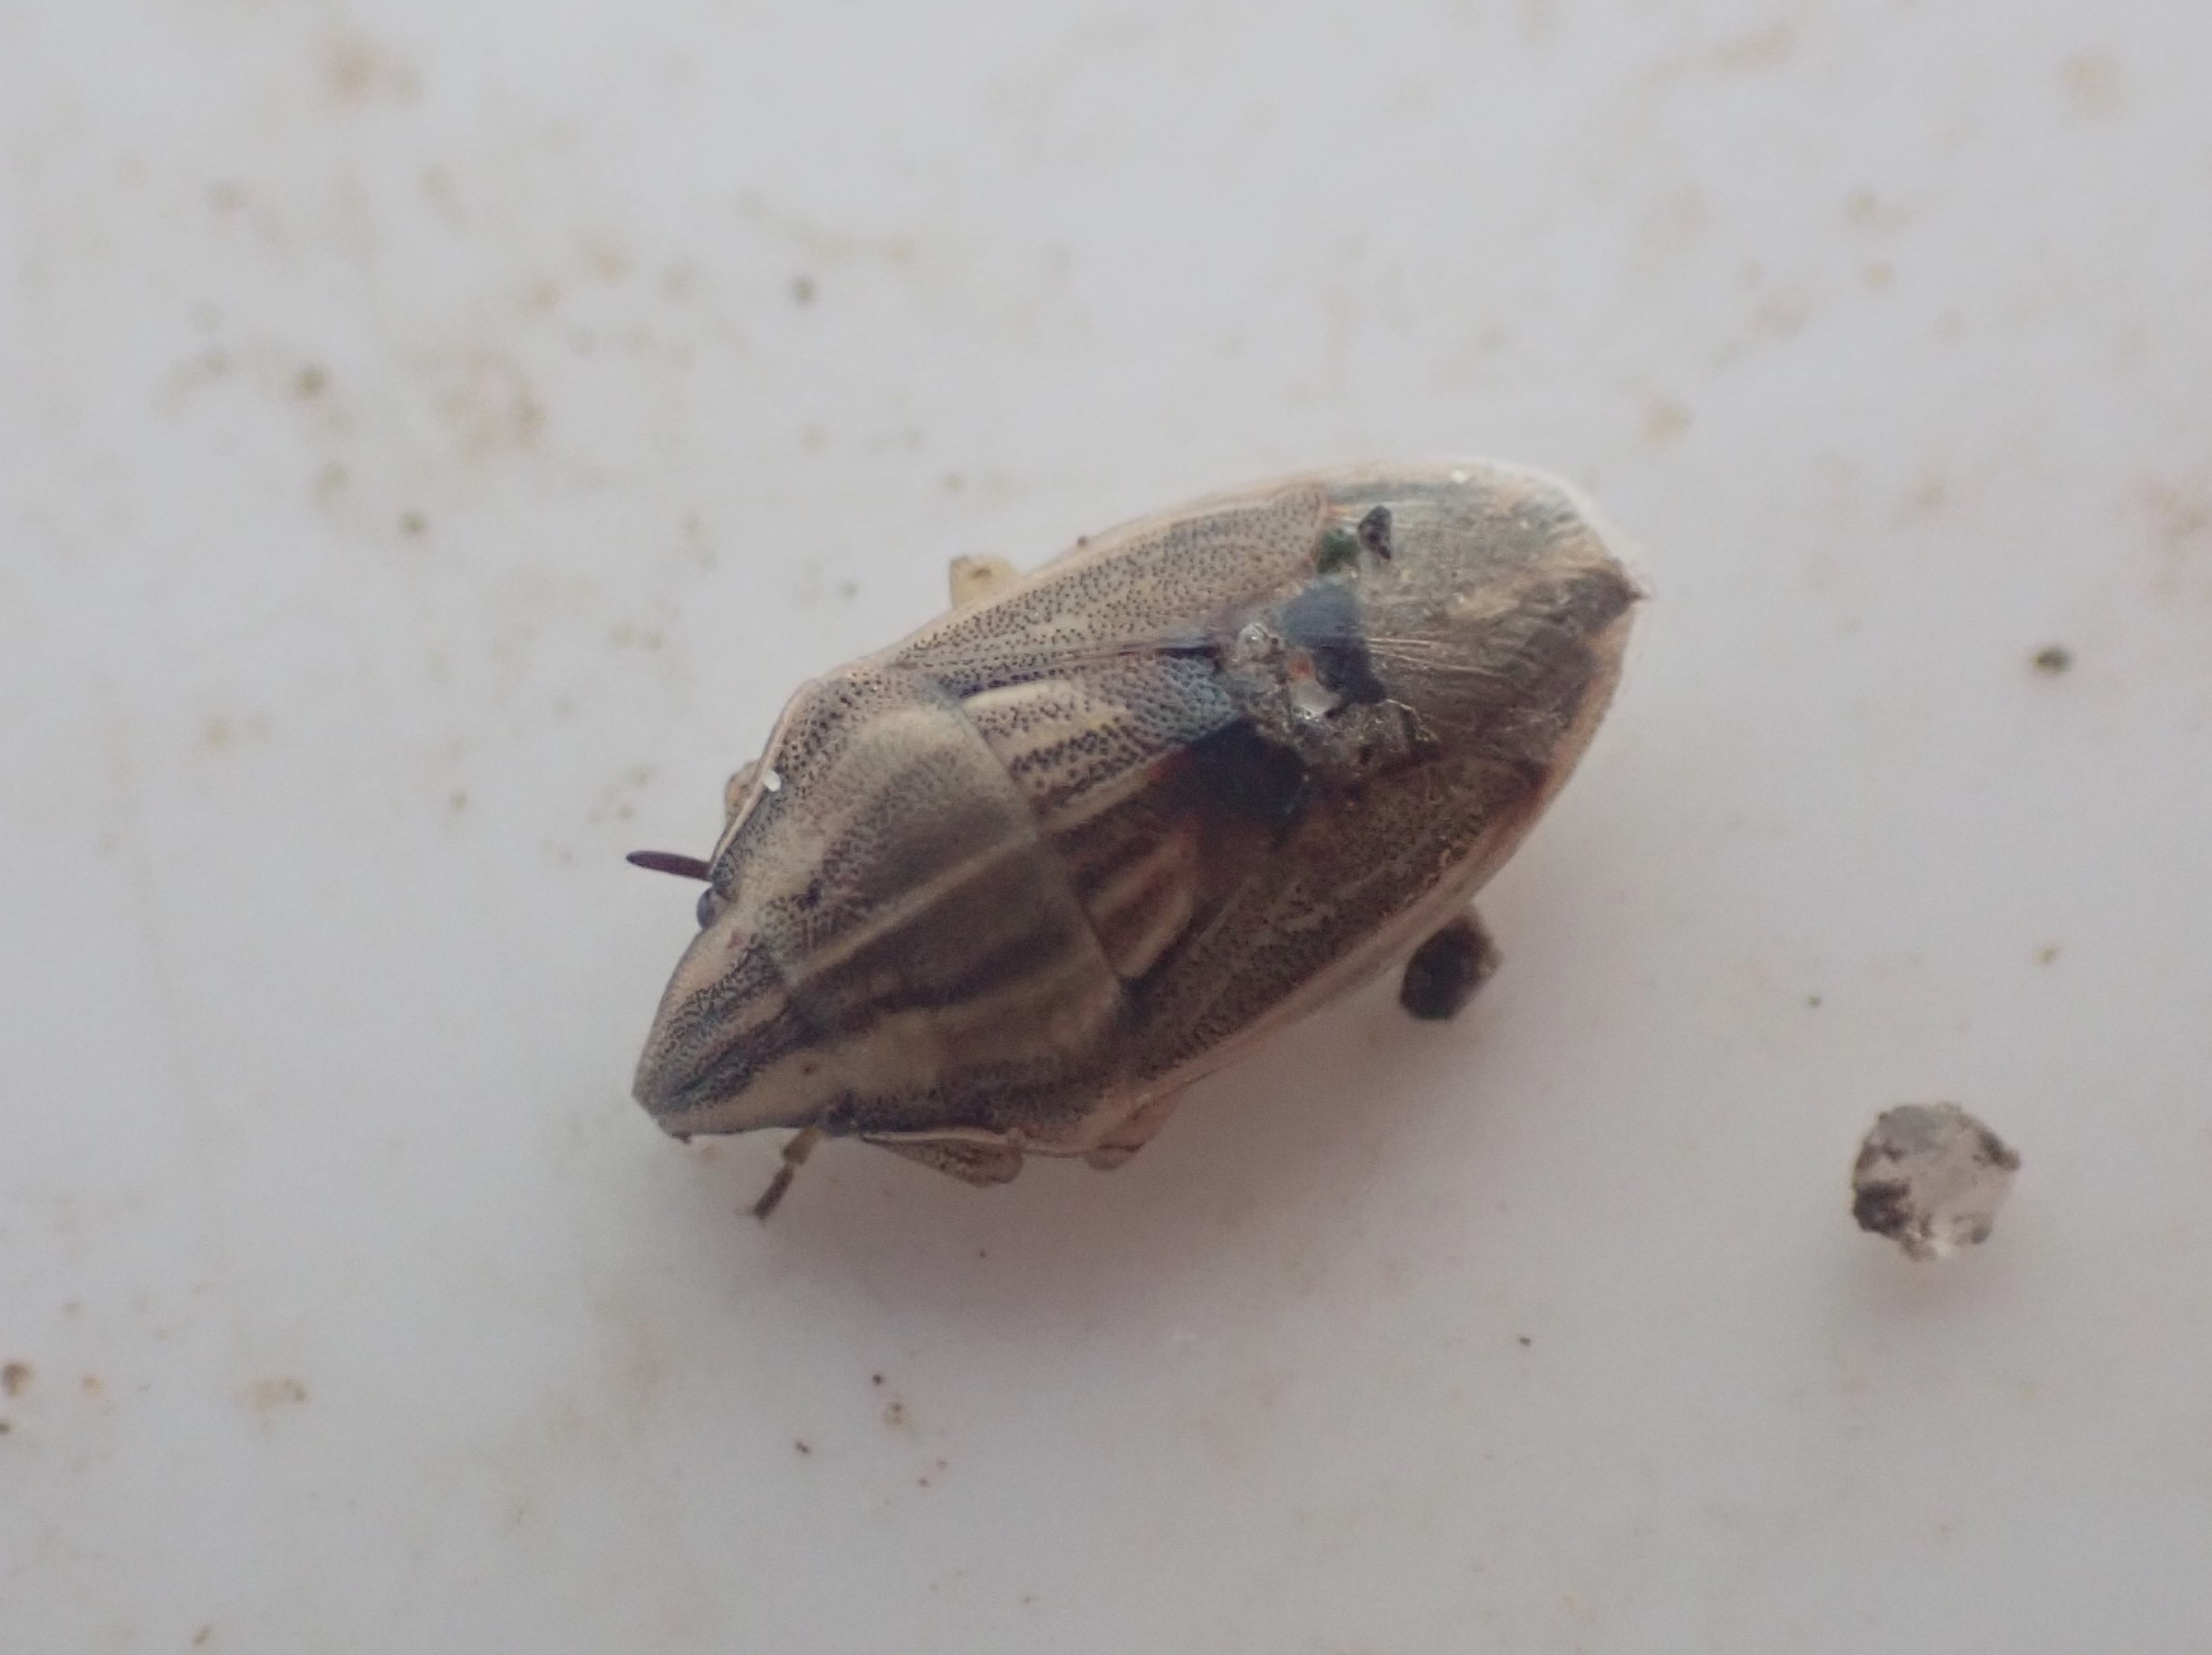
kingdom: Animalia
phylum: Arthropoda
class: Insecta
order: Hemiptera
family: Pentatomidae
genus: Aelia
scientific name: Aelia acuminata
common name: Almindelig bispetæge
